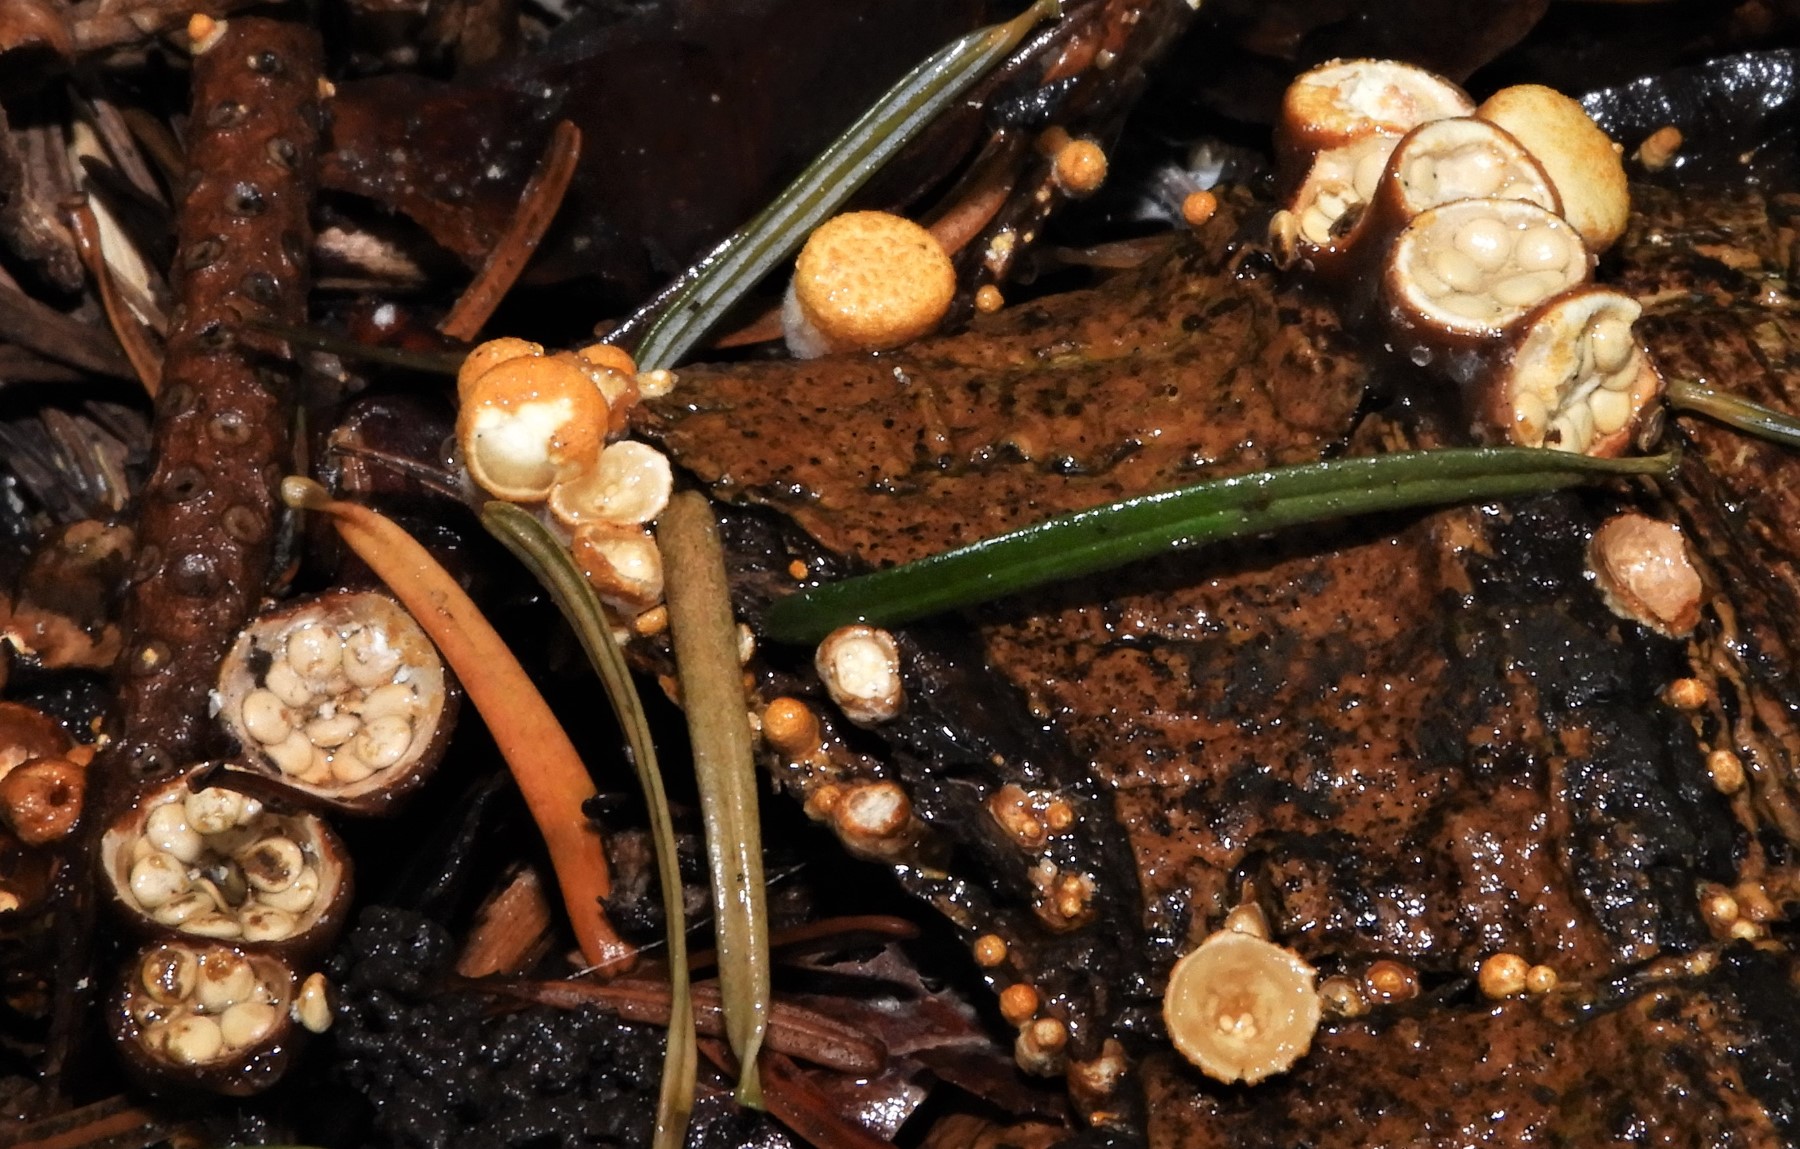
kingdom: Fungi
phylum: Basidiomycota
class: Agaricomycetes
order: Agaricales
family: Nidulariaceae
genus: Crucibulum
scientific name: Crucibulum crucibuliforme
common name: krukkesvamp
